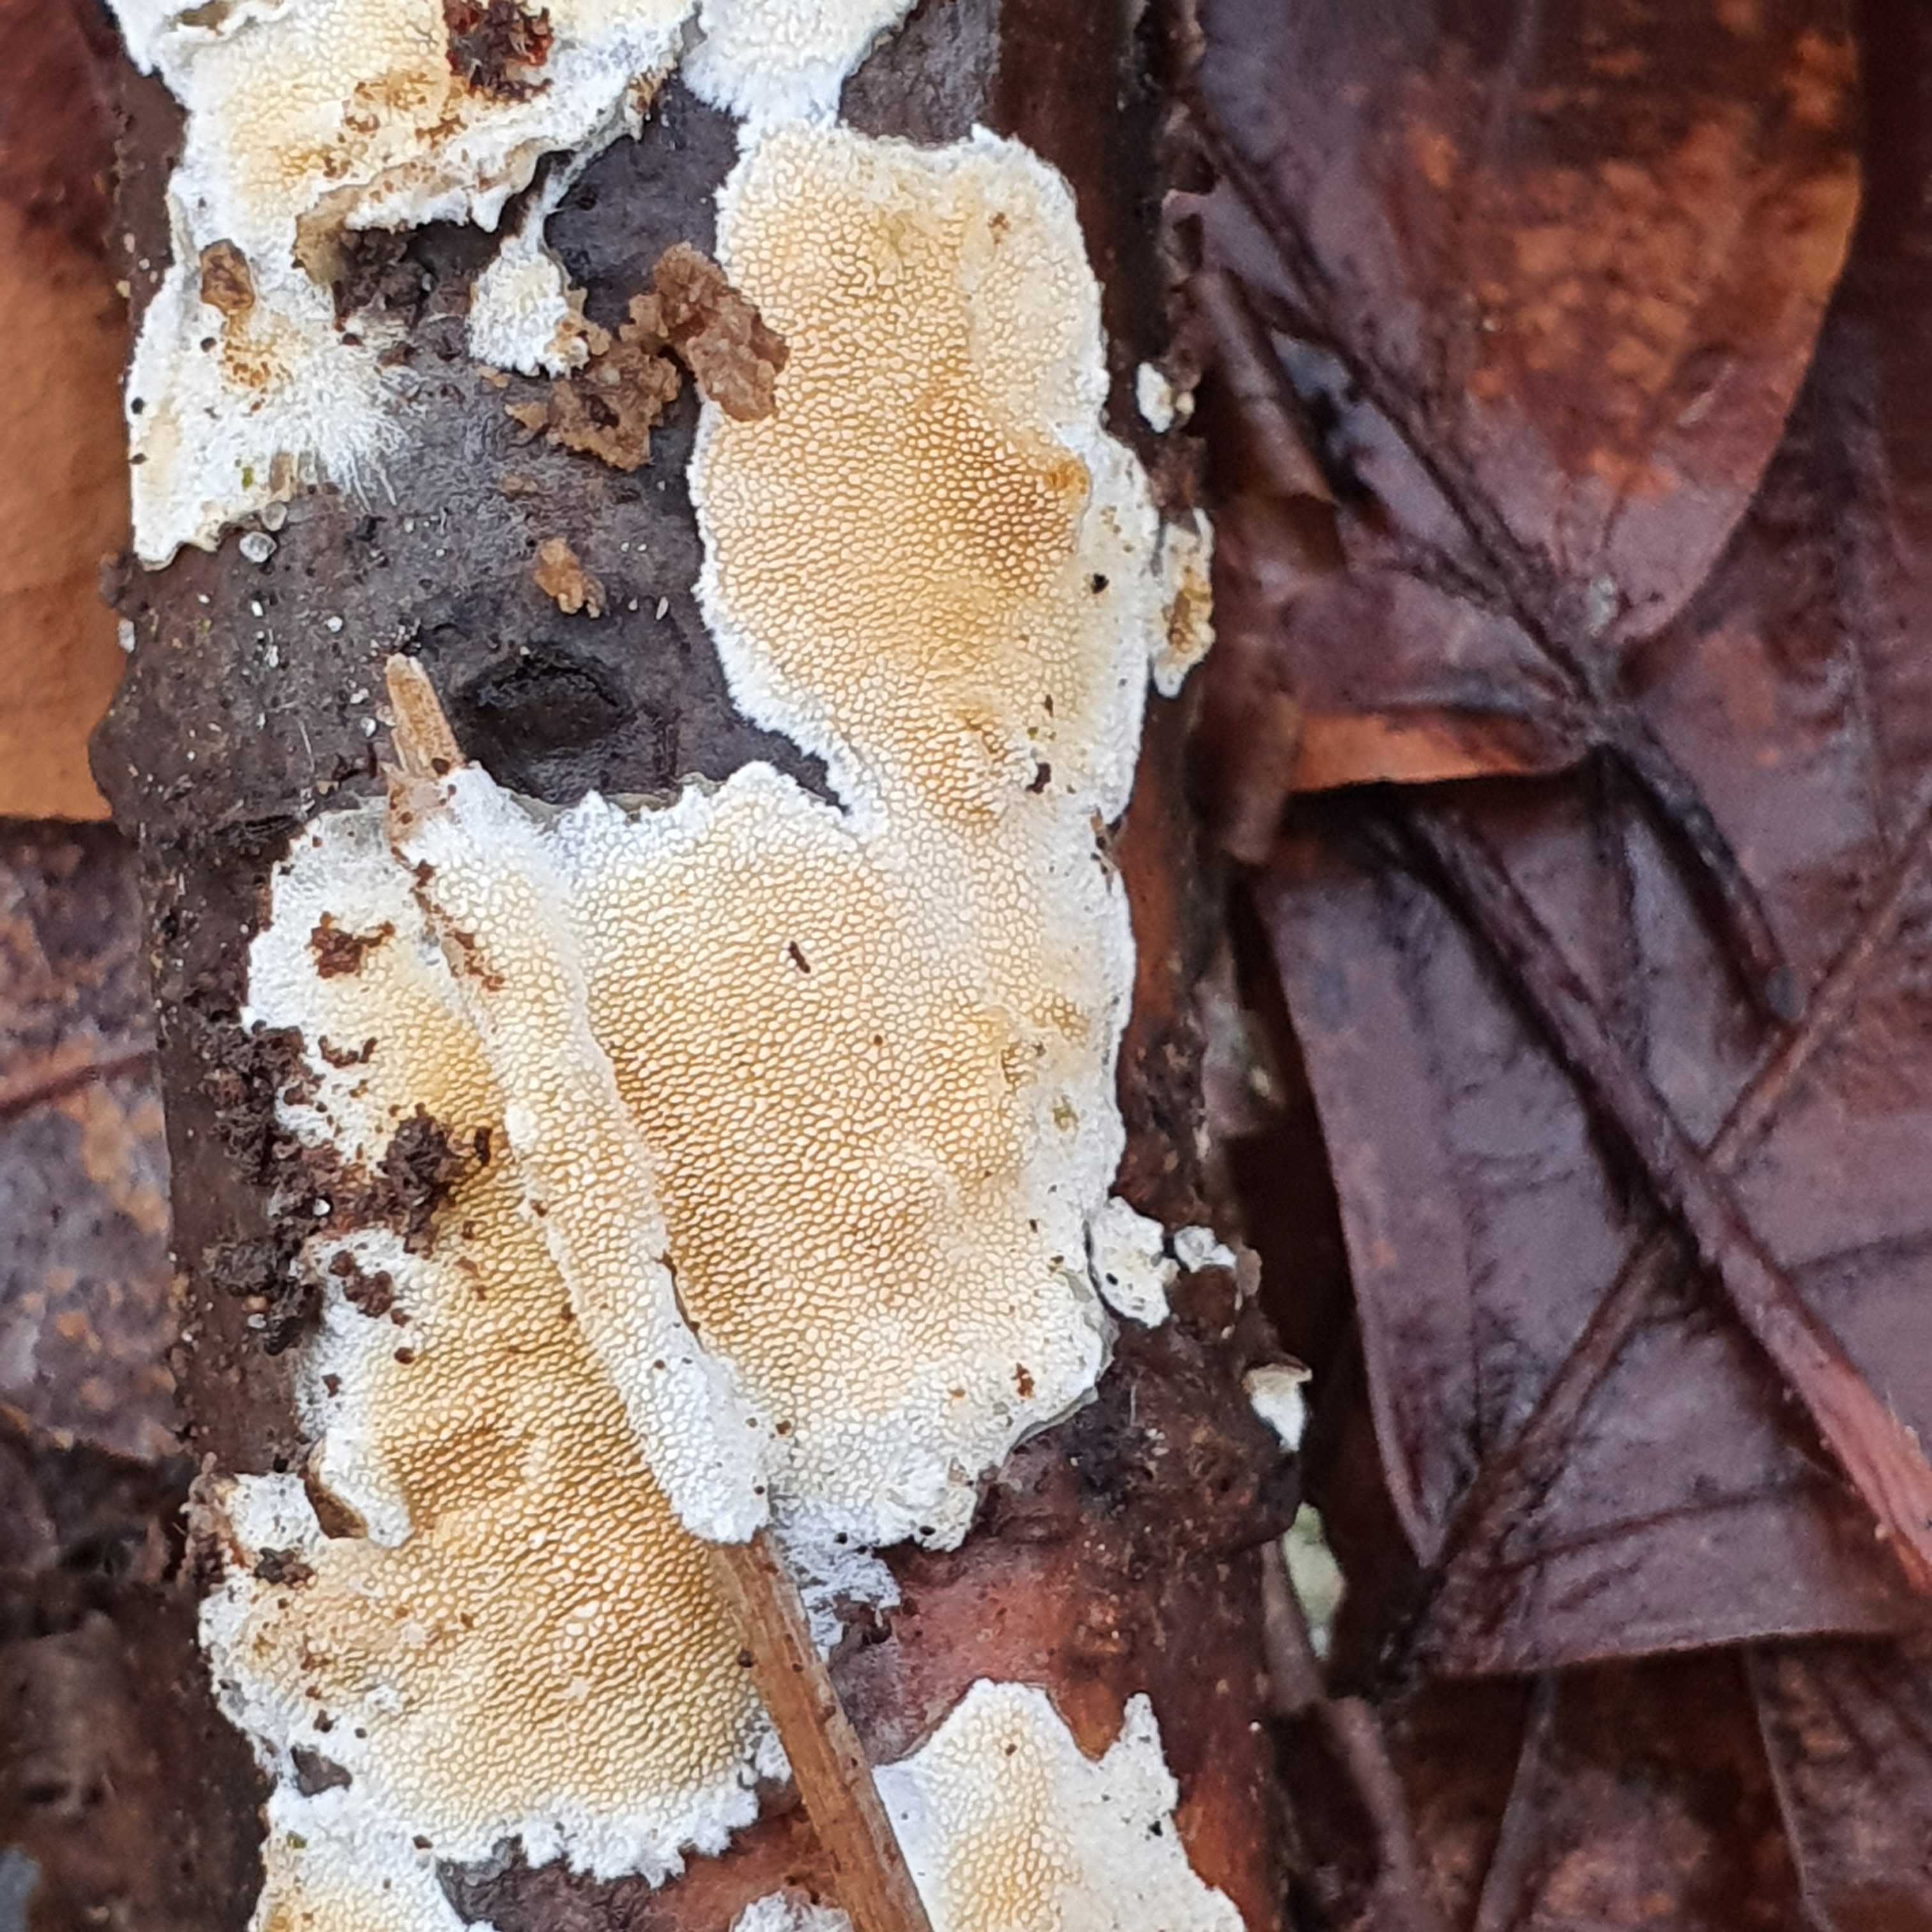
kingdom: Fungi
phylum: Basidiomycota
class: Agaricomycetes
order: Polyporales
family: Steccherinaceae
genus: Steccherinum
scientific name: Steccherinum ochraceum
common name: almindelig skønpig
